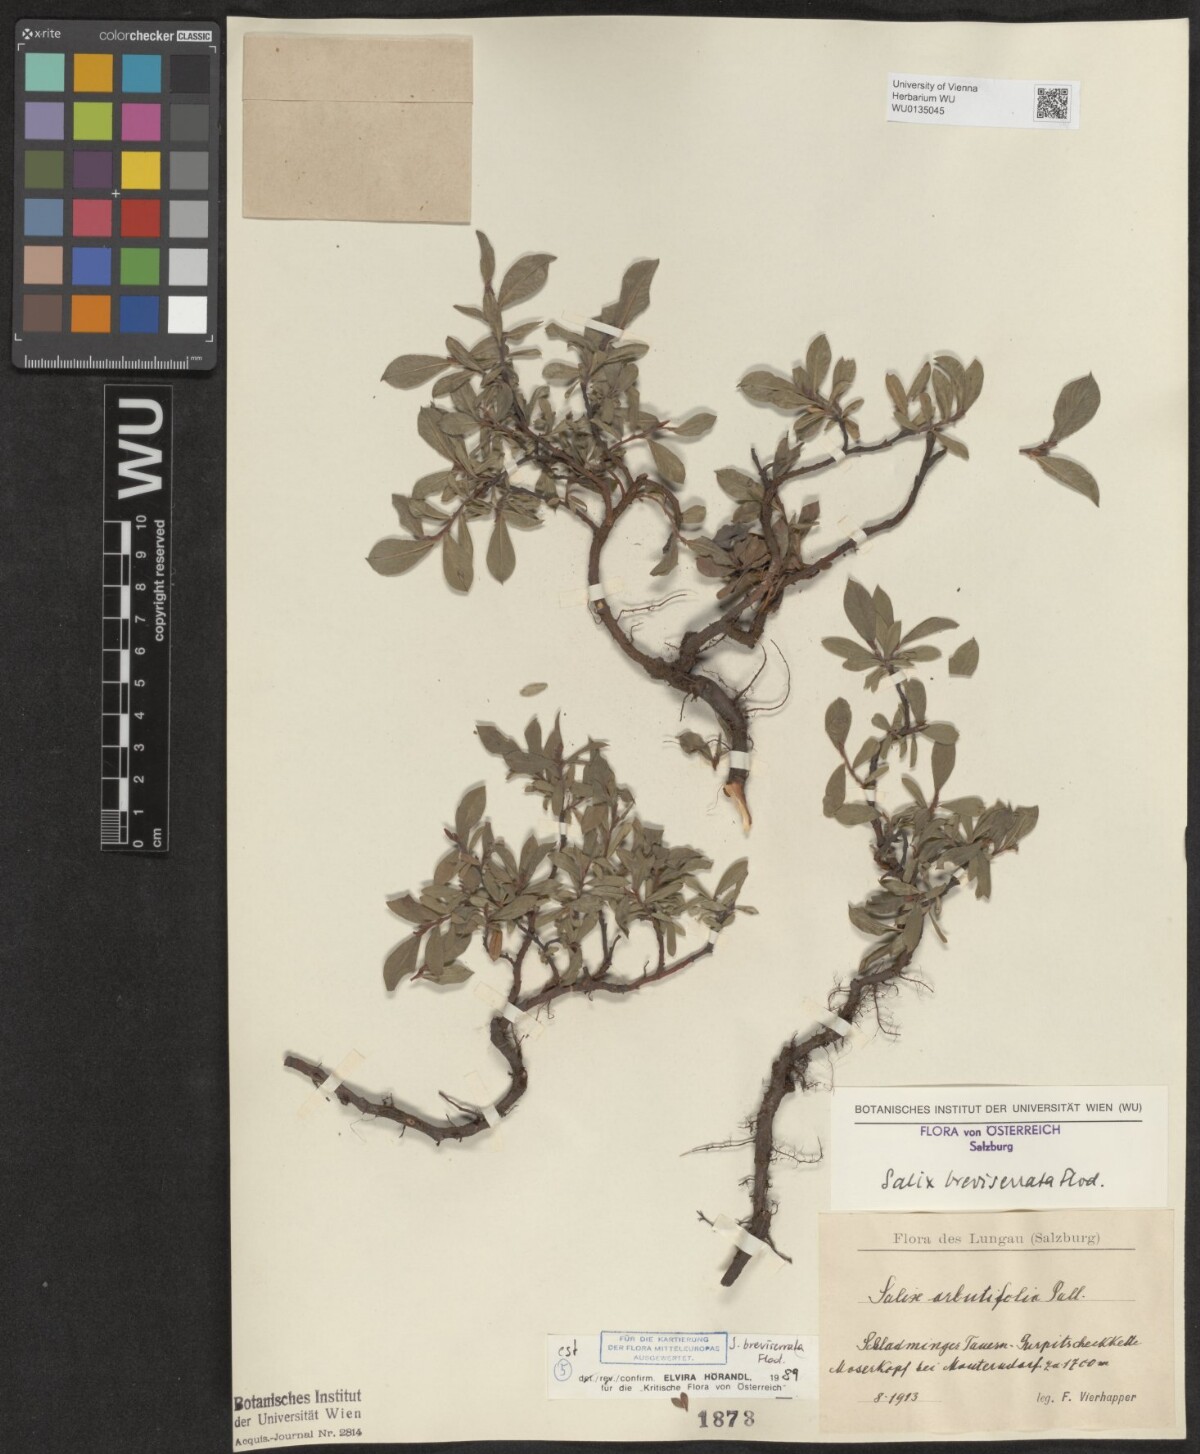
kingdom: Plantae
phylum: Tracheophyta
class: Magnoliopsida
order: Malpighiales
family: Salicaceae
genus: Salix
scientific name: Salix breviserrata
